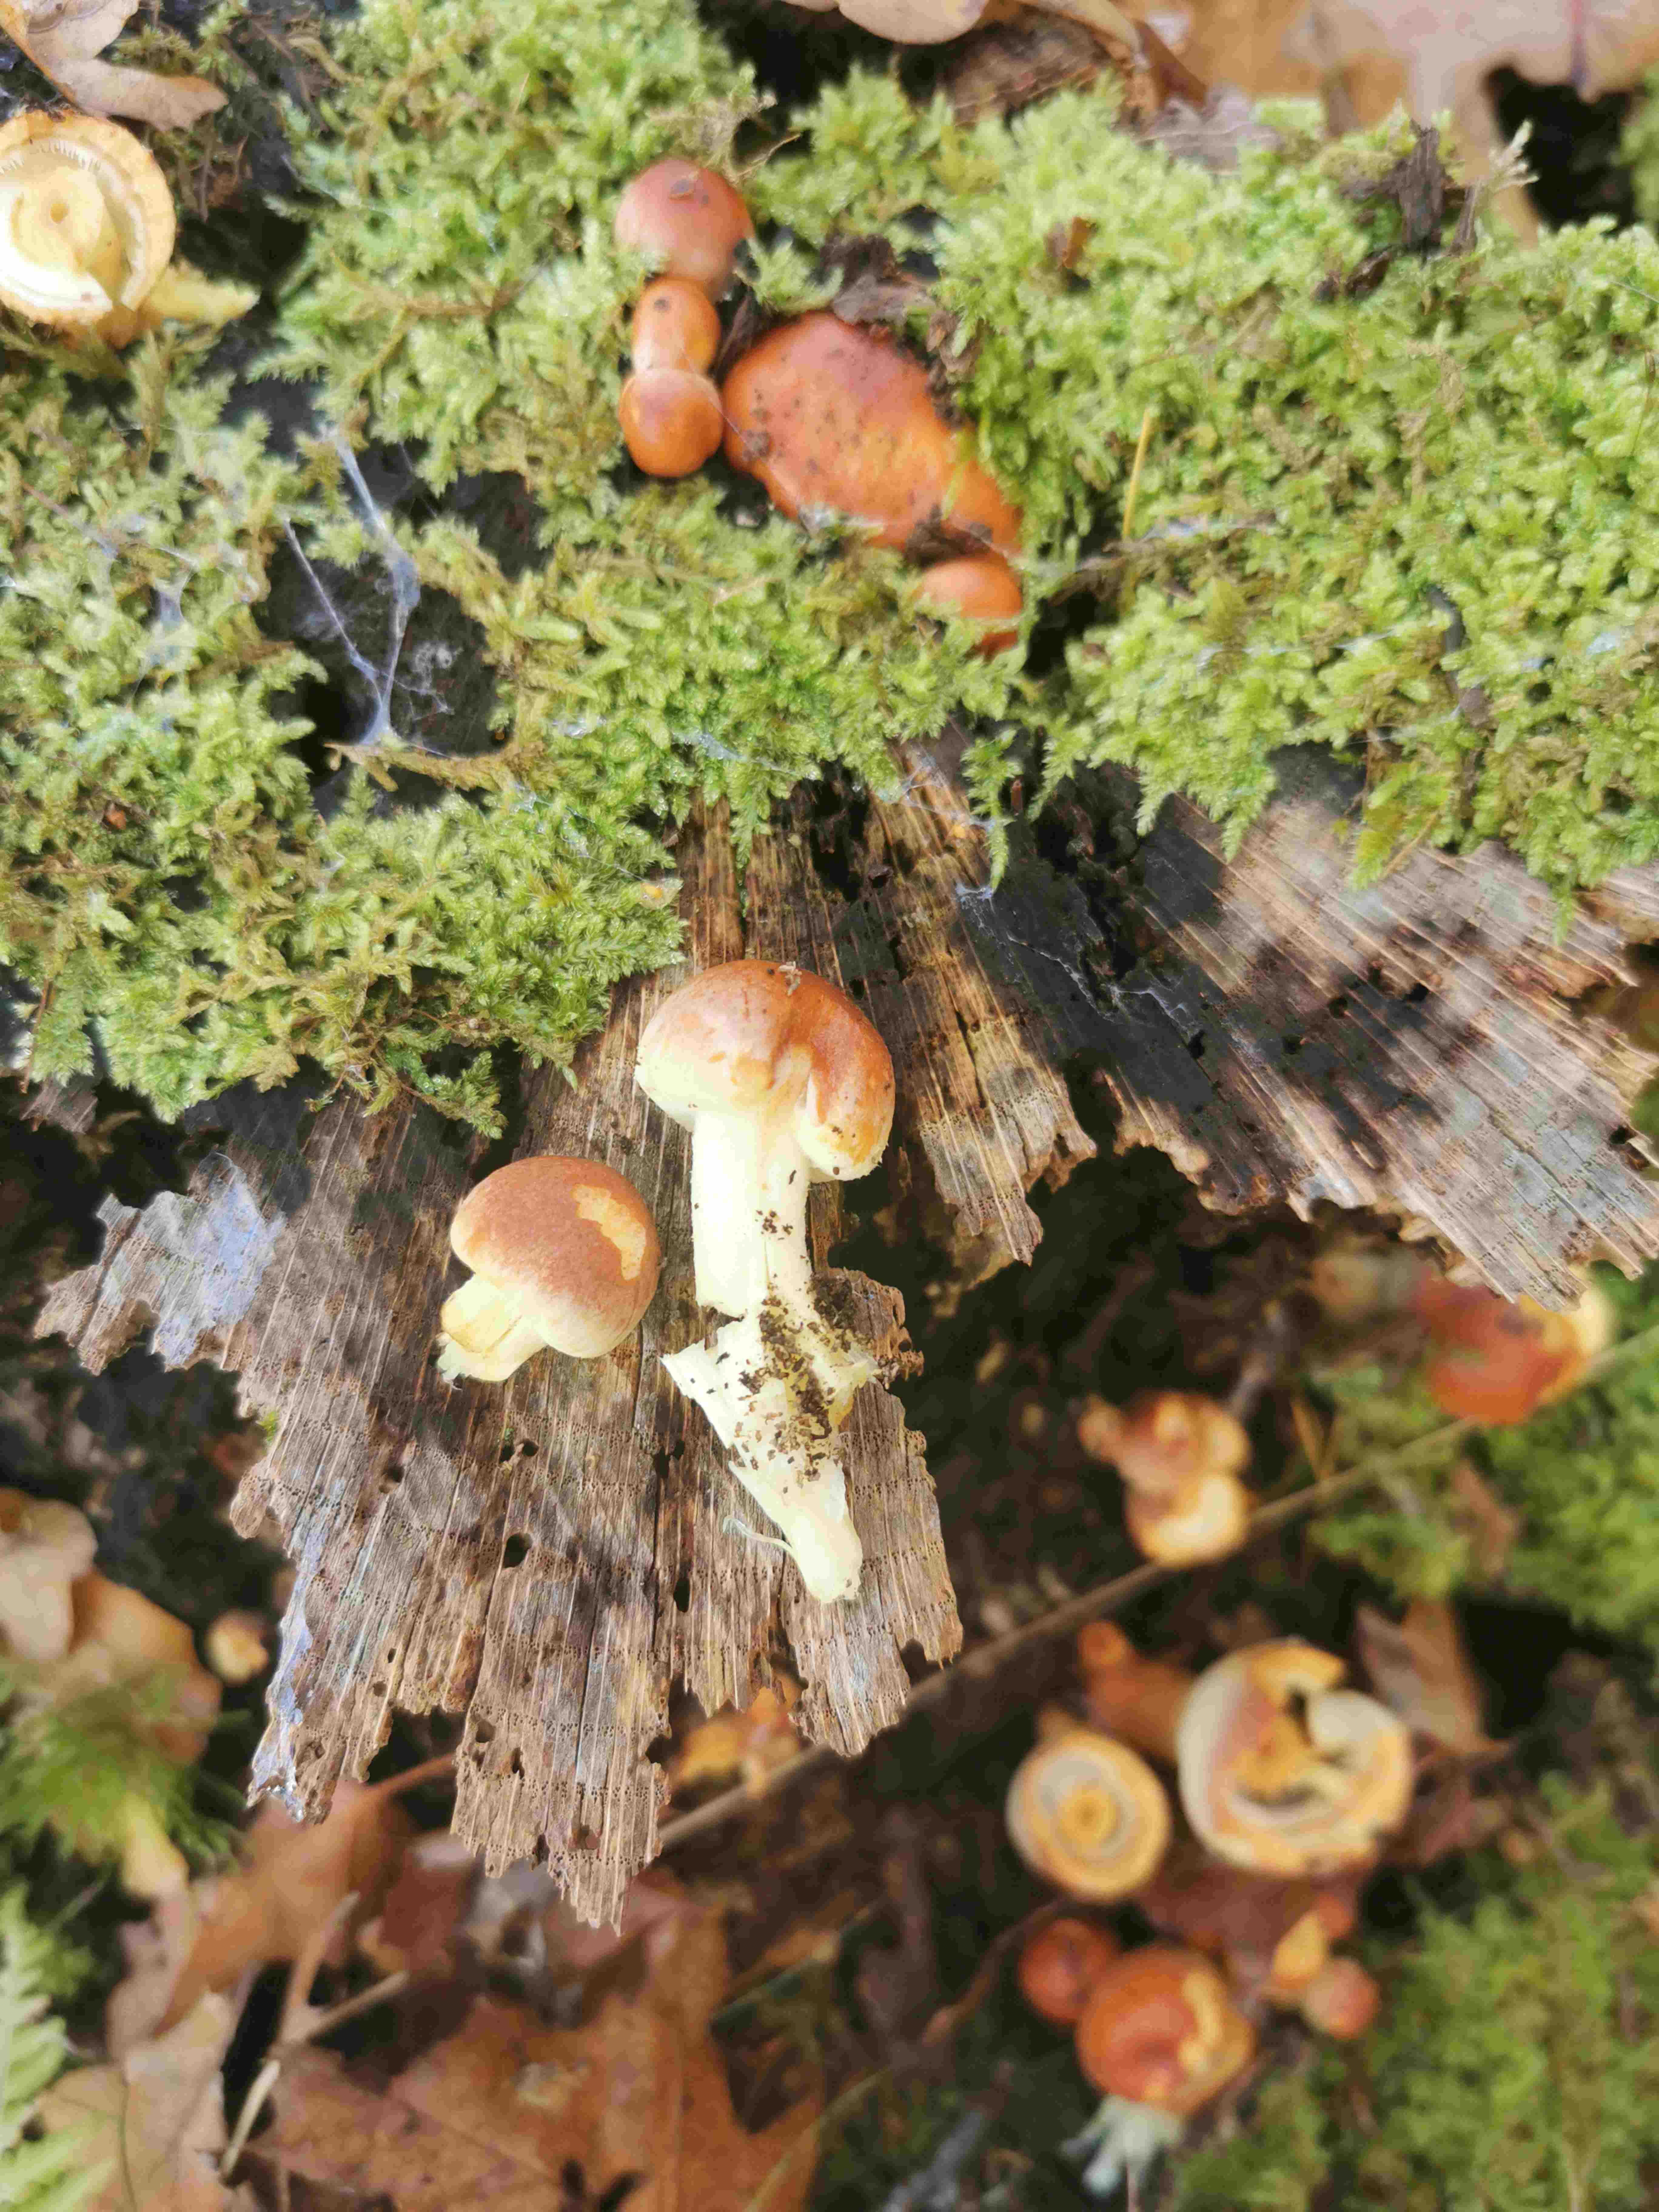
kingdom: Fungi
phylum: Basidiomycota
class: Agaricomycetes
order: Agaricales
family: Strophariaceae
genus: Hypholoma
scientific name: Hypholoma lateritium
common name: teglrød svovlhat
